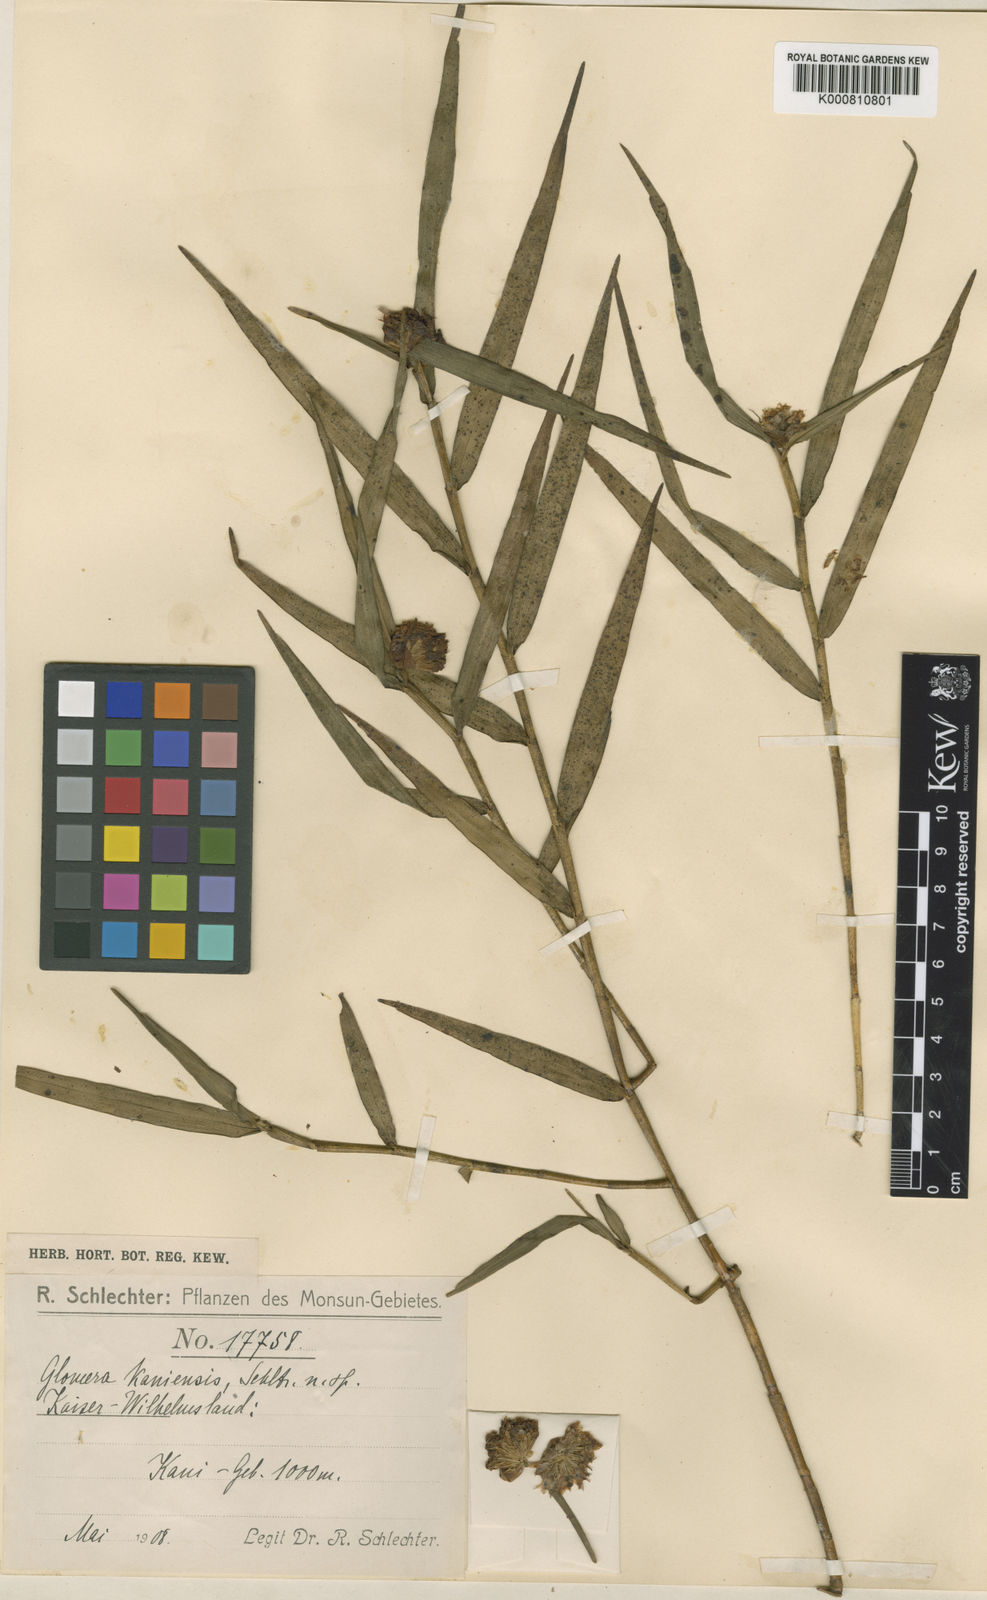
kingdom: Plantae
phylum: Tracheophyta
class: Liliopsida
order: Asparagales
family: Orchidaceae
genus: Glomera
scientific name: Glomera kaniensis
